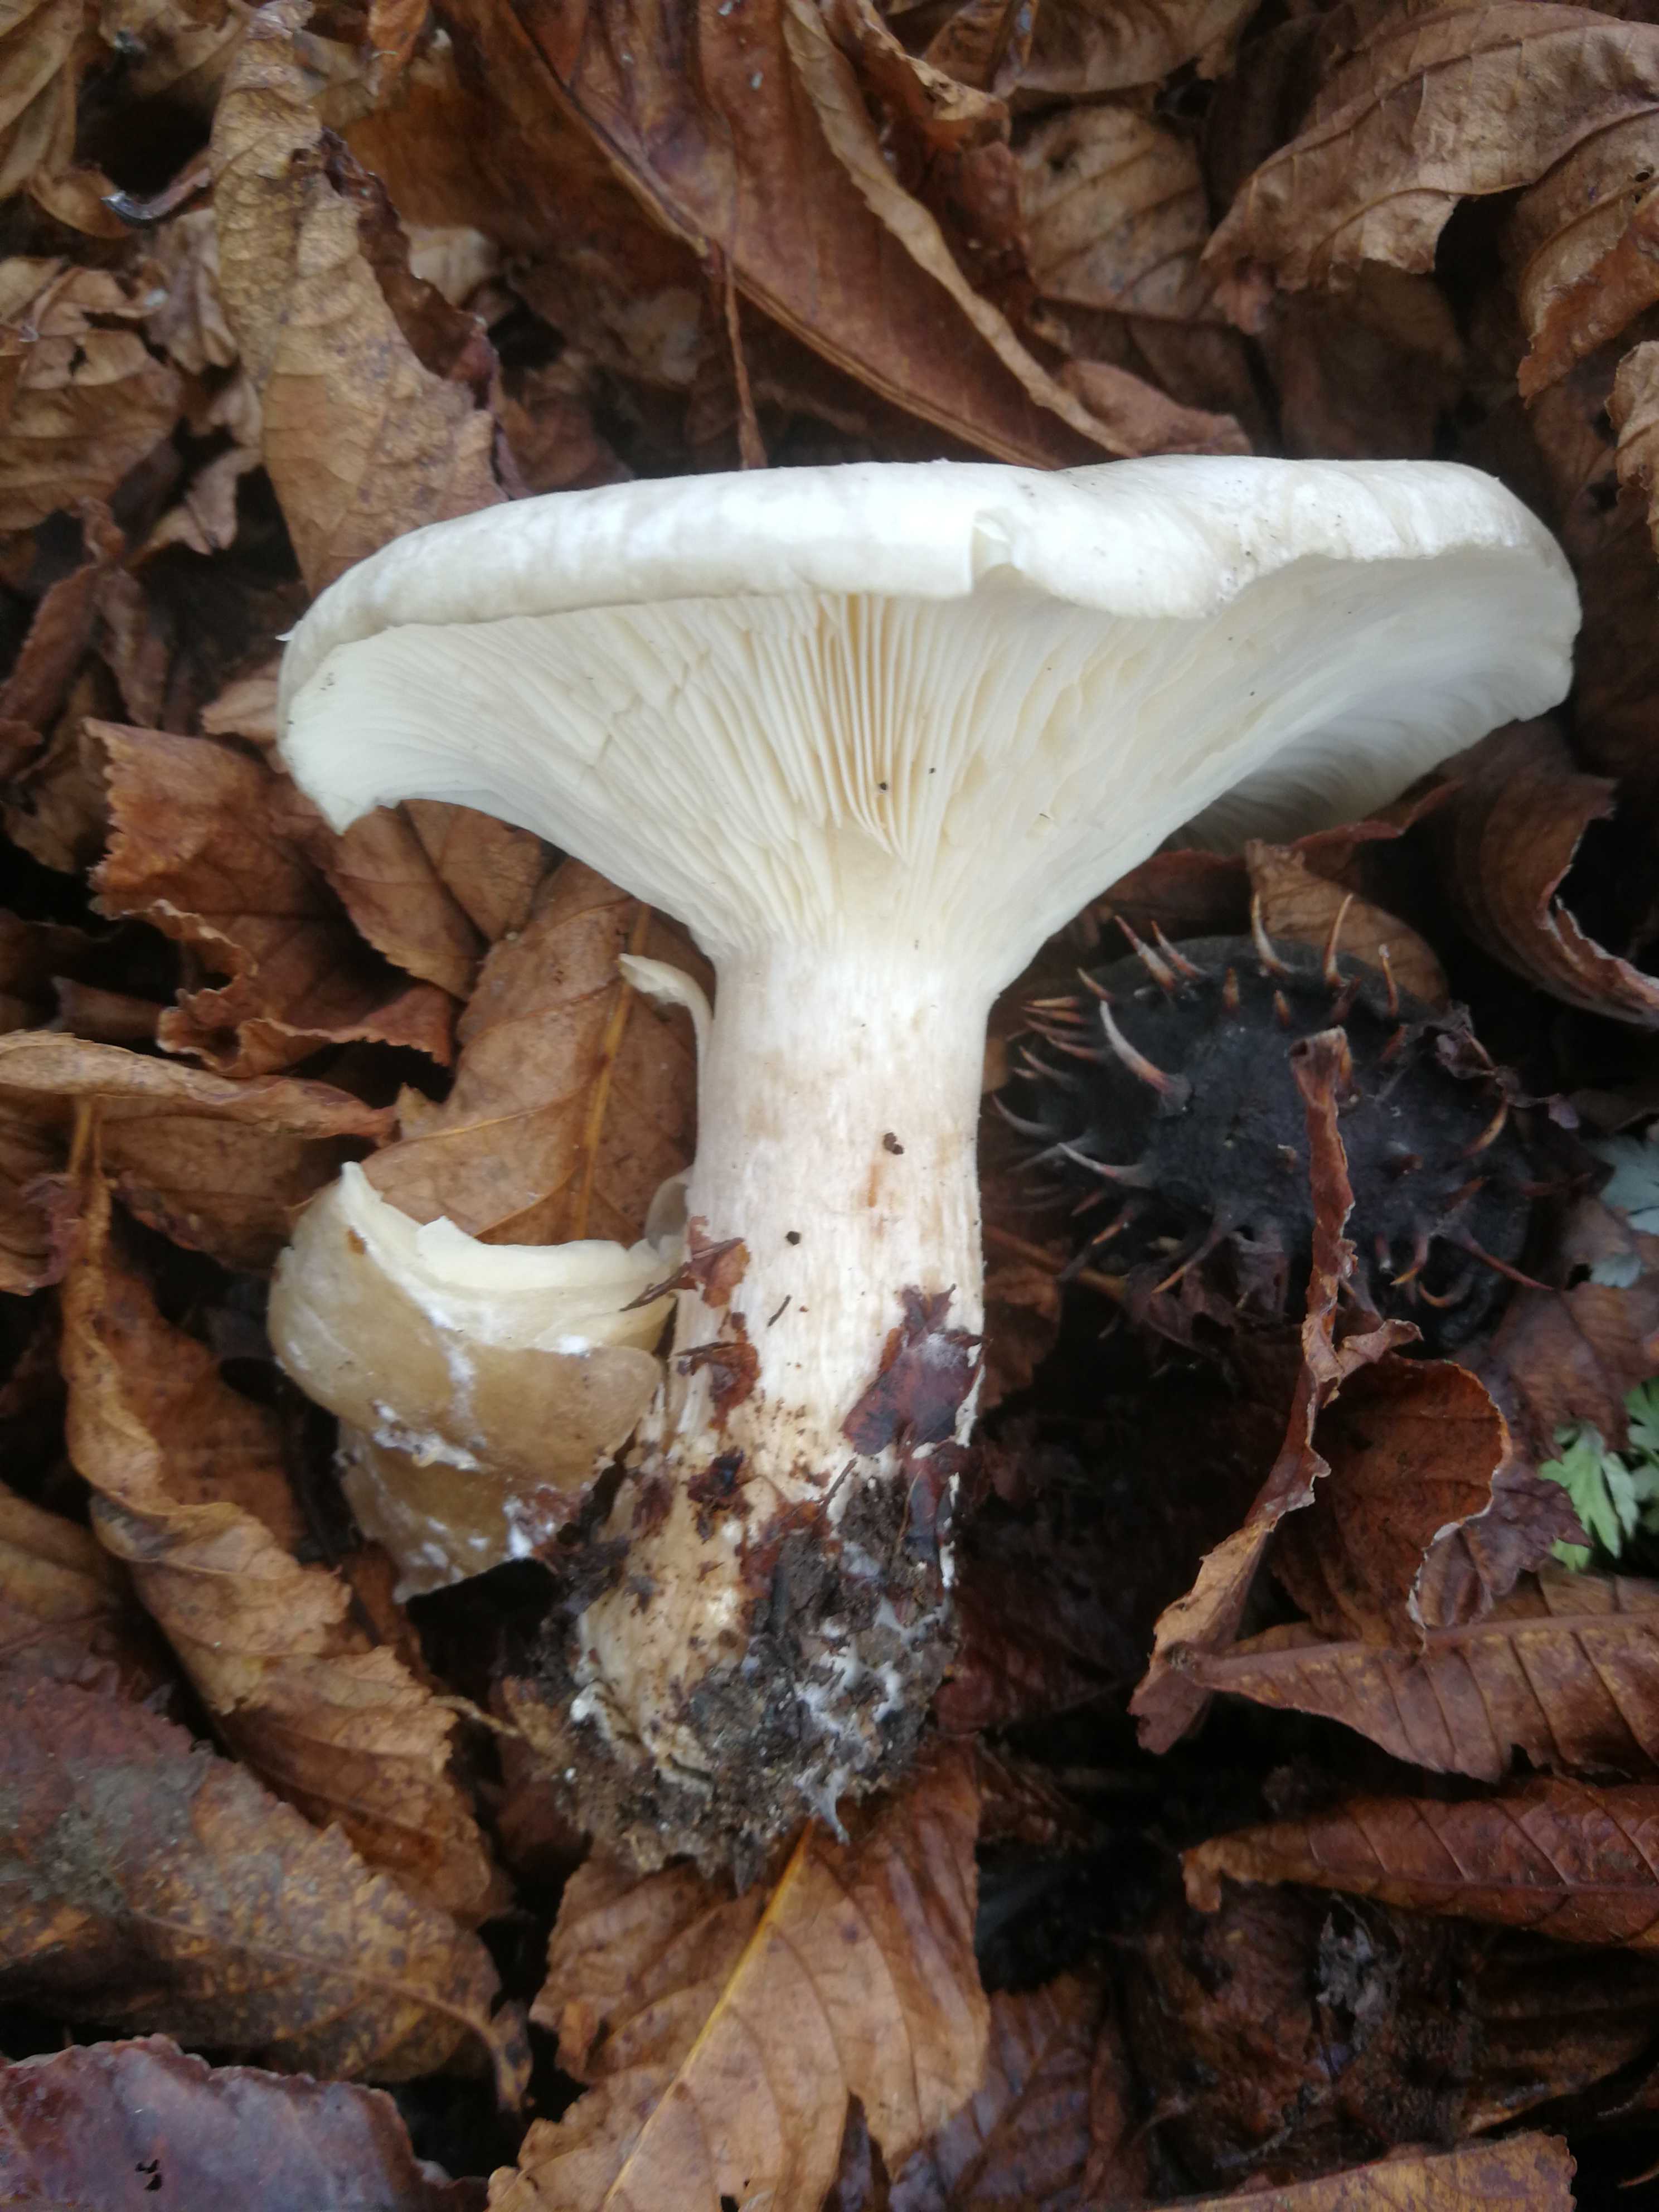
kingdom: Fungi
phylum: Basidiomycota
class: Agaricomycetes
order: Agaricales
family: Tricholomataceae
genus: Clitocybe
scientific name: Clitocybe nebularis
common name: tåge-tragthat
